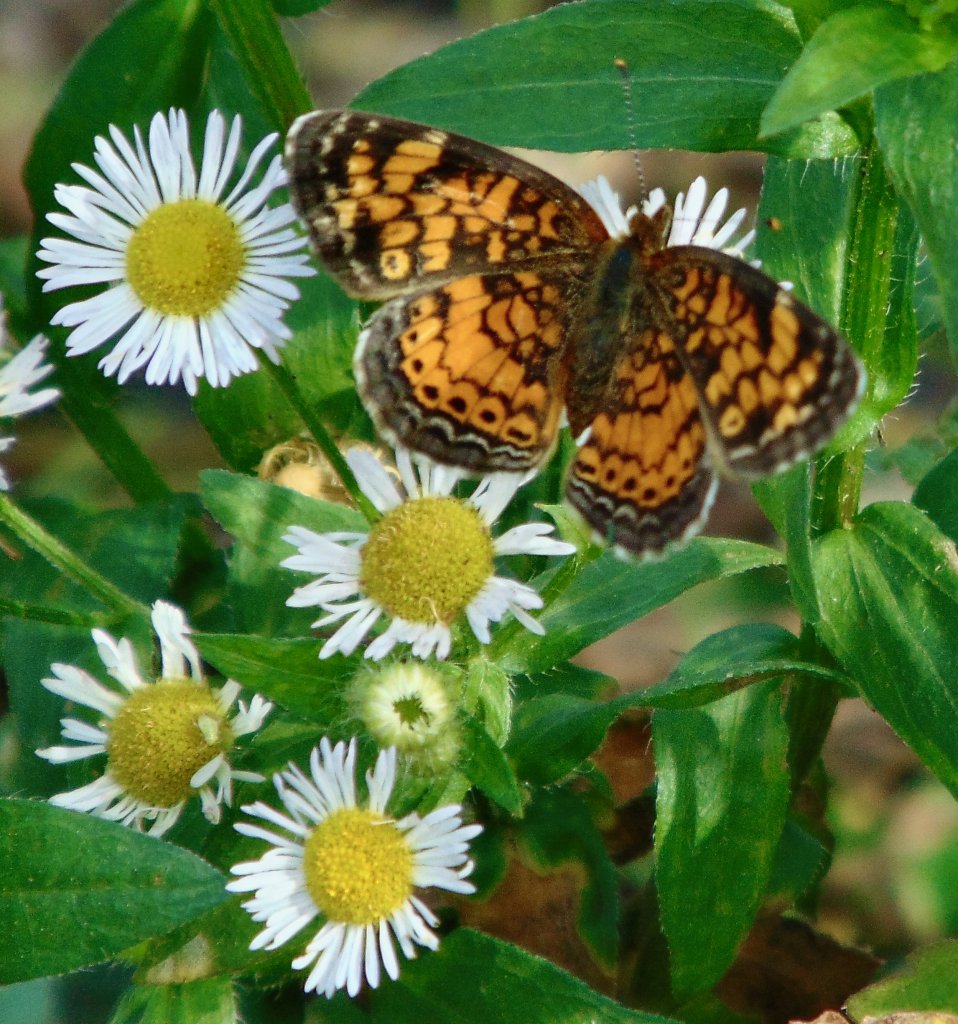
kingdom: Animalia
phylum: Arthropoda
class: Insecta
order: Lepidoptera
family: Nymphalidae
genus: Phyciodes
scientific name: Phyciodes tharos
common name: Pearl Crescent
